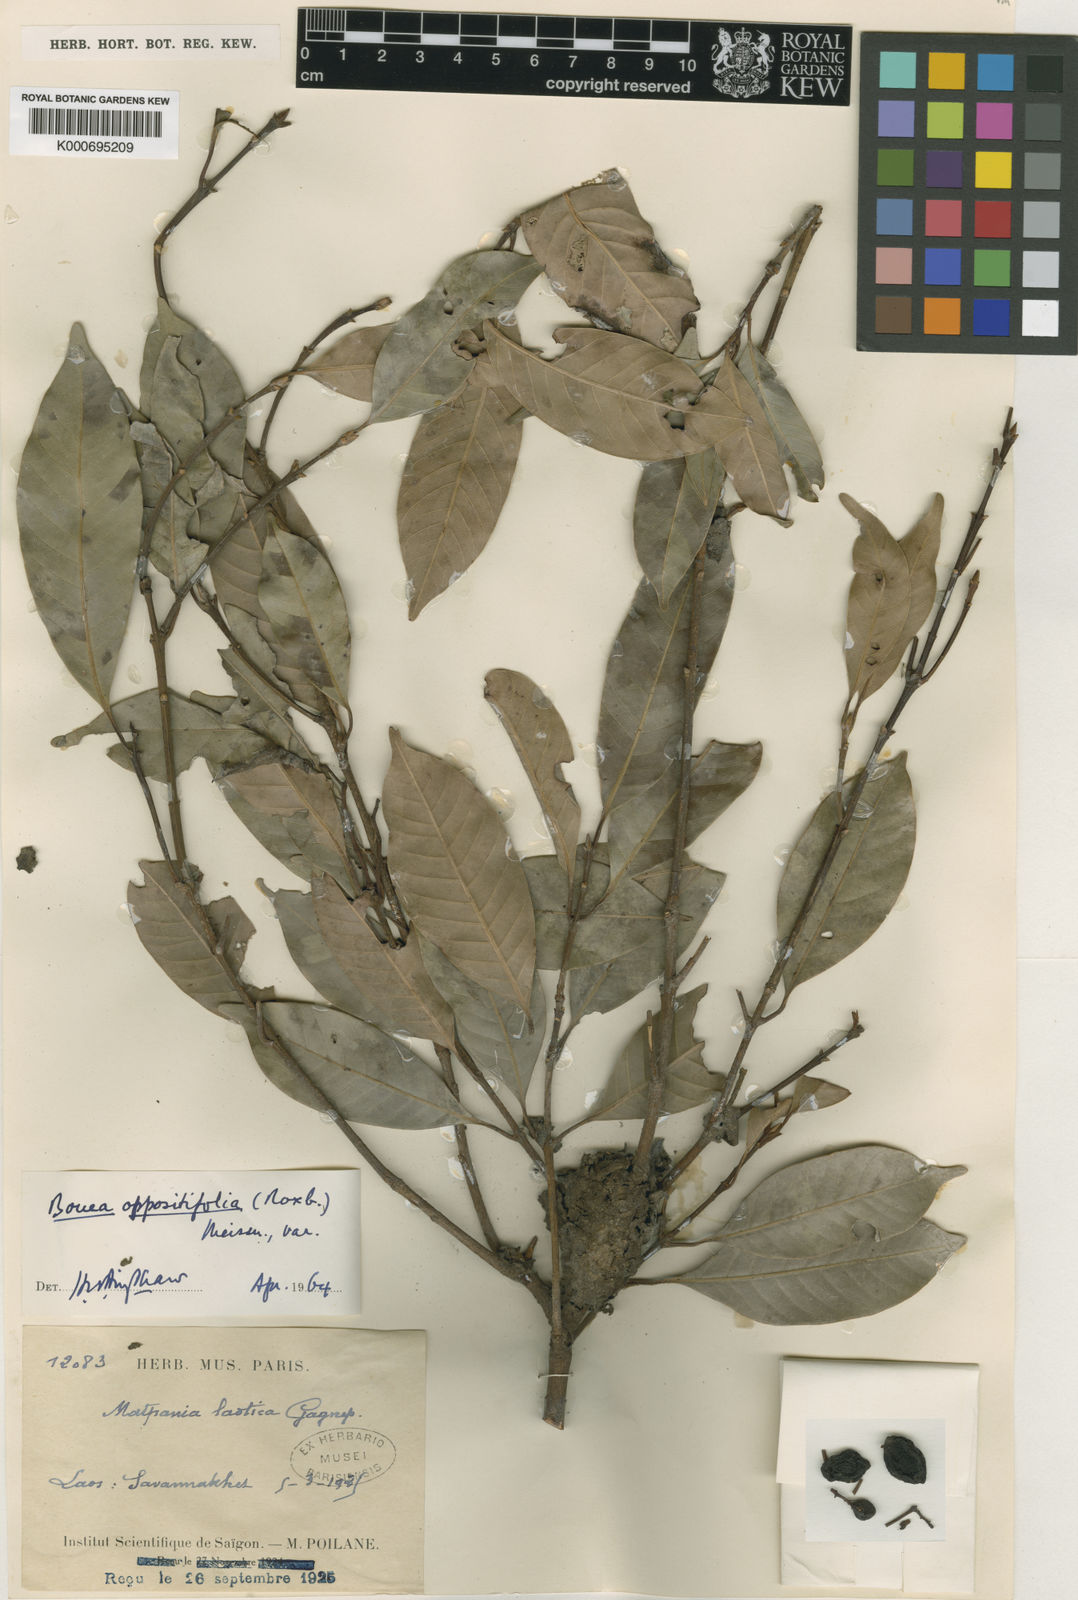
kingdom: Plantae
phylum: Tracheophyta
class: Magnoliopsida
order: Sapindales
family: Anacardiaceae
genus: Bouea
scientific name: Bouea oppositifolia
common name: Narrow-leaved kundang
